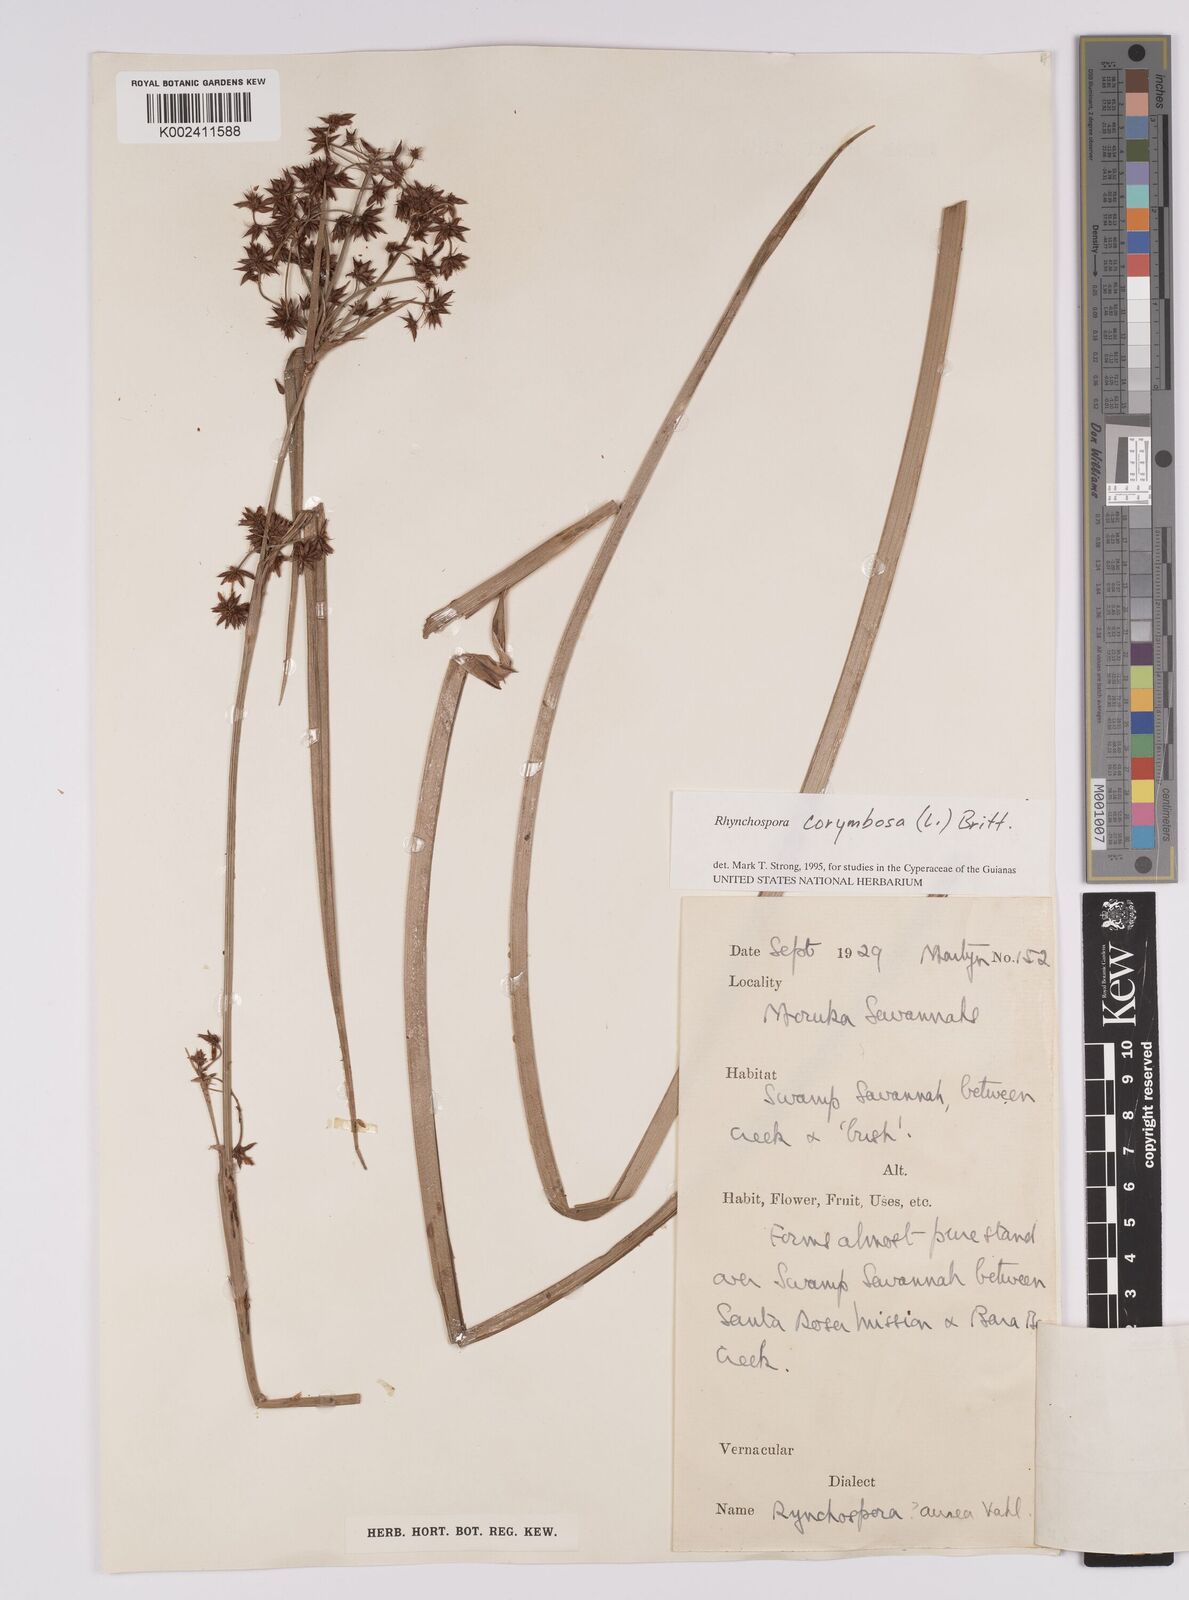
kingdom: Plantae
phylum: Tracheophyta
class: Liliopsida
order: Poales
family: Cyperaceae
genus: Rhynchospora
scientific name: Rhynchospora corymbosa
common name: Golden beak sedge
